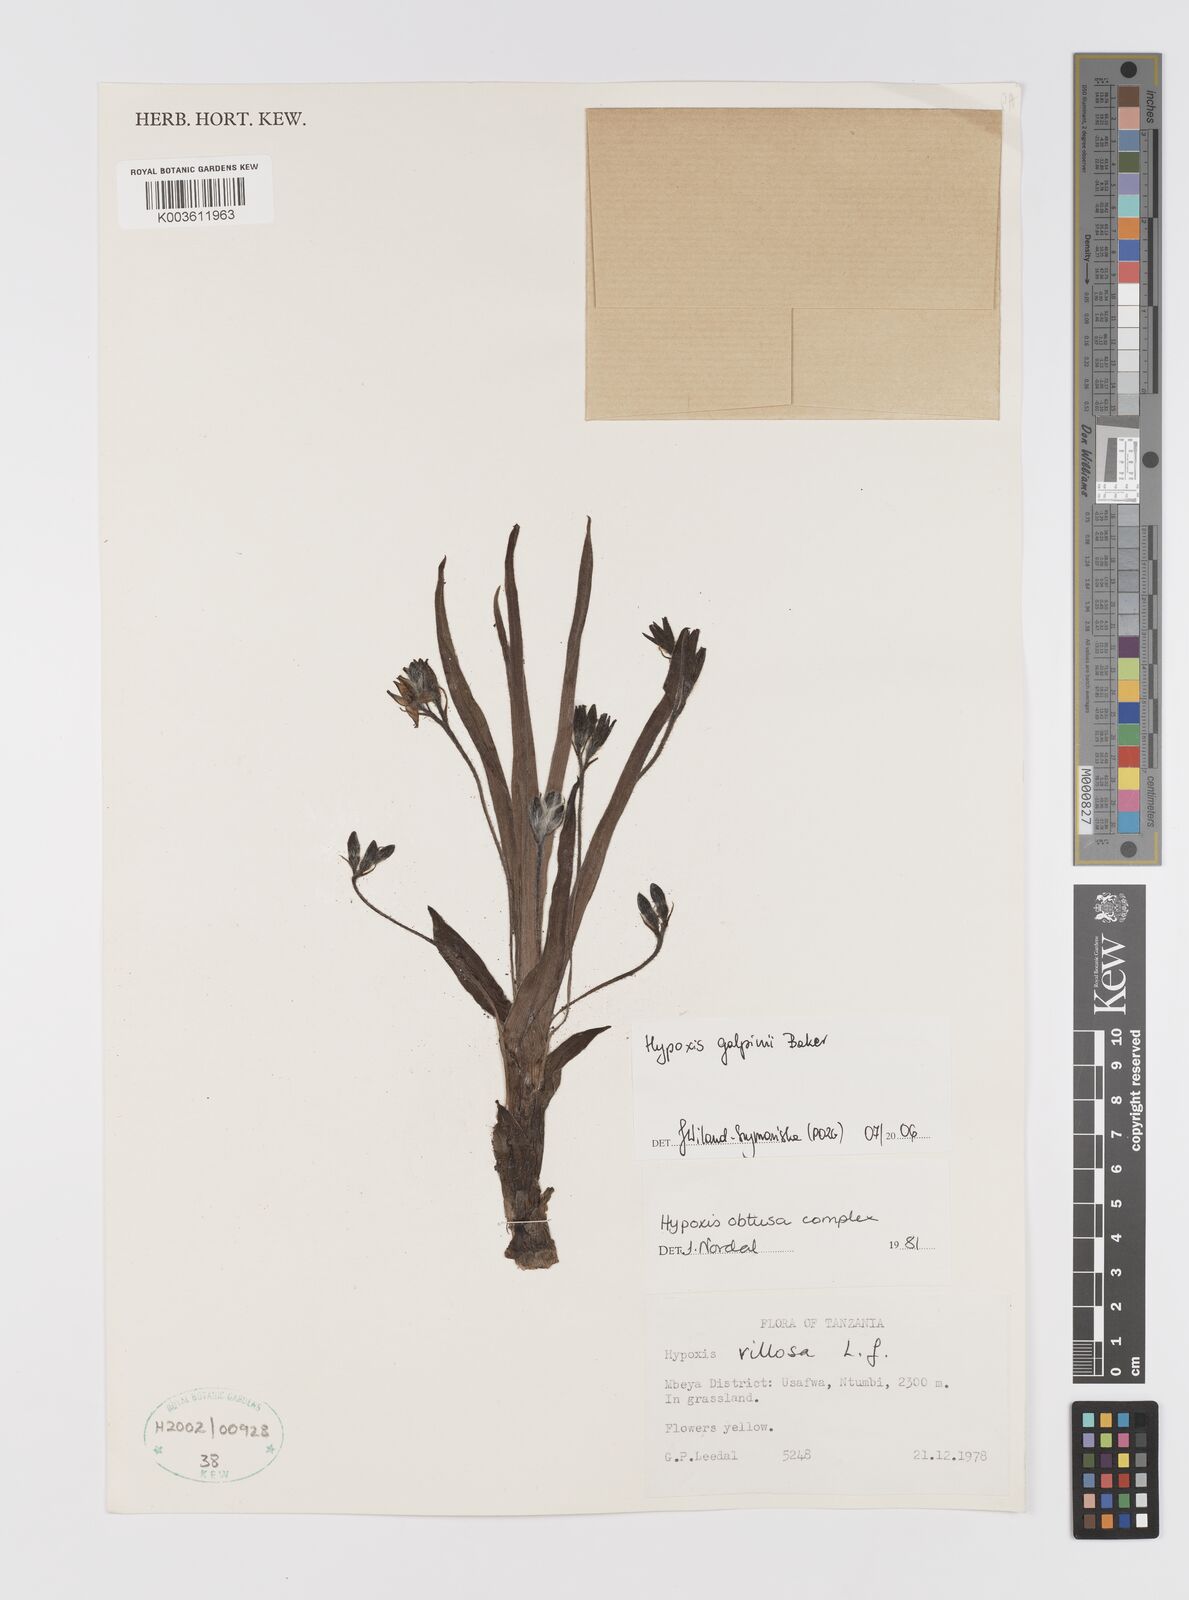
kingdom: Plantae
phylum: Tracheophyta
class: Liliopsida
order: Asparagales
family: Hypoxidaceae
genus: Hypoxis
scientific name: Hypoxis galpinii
